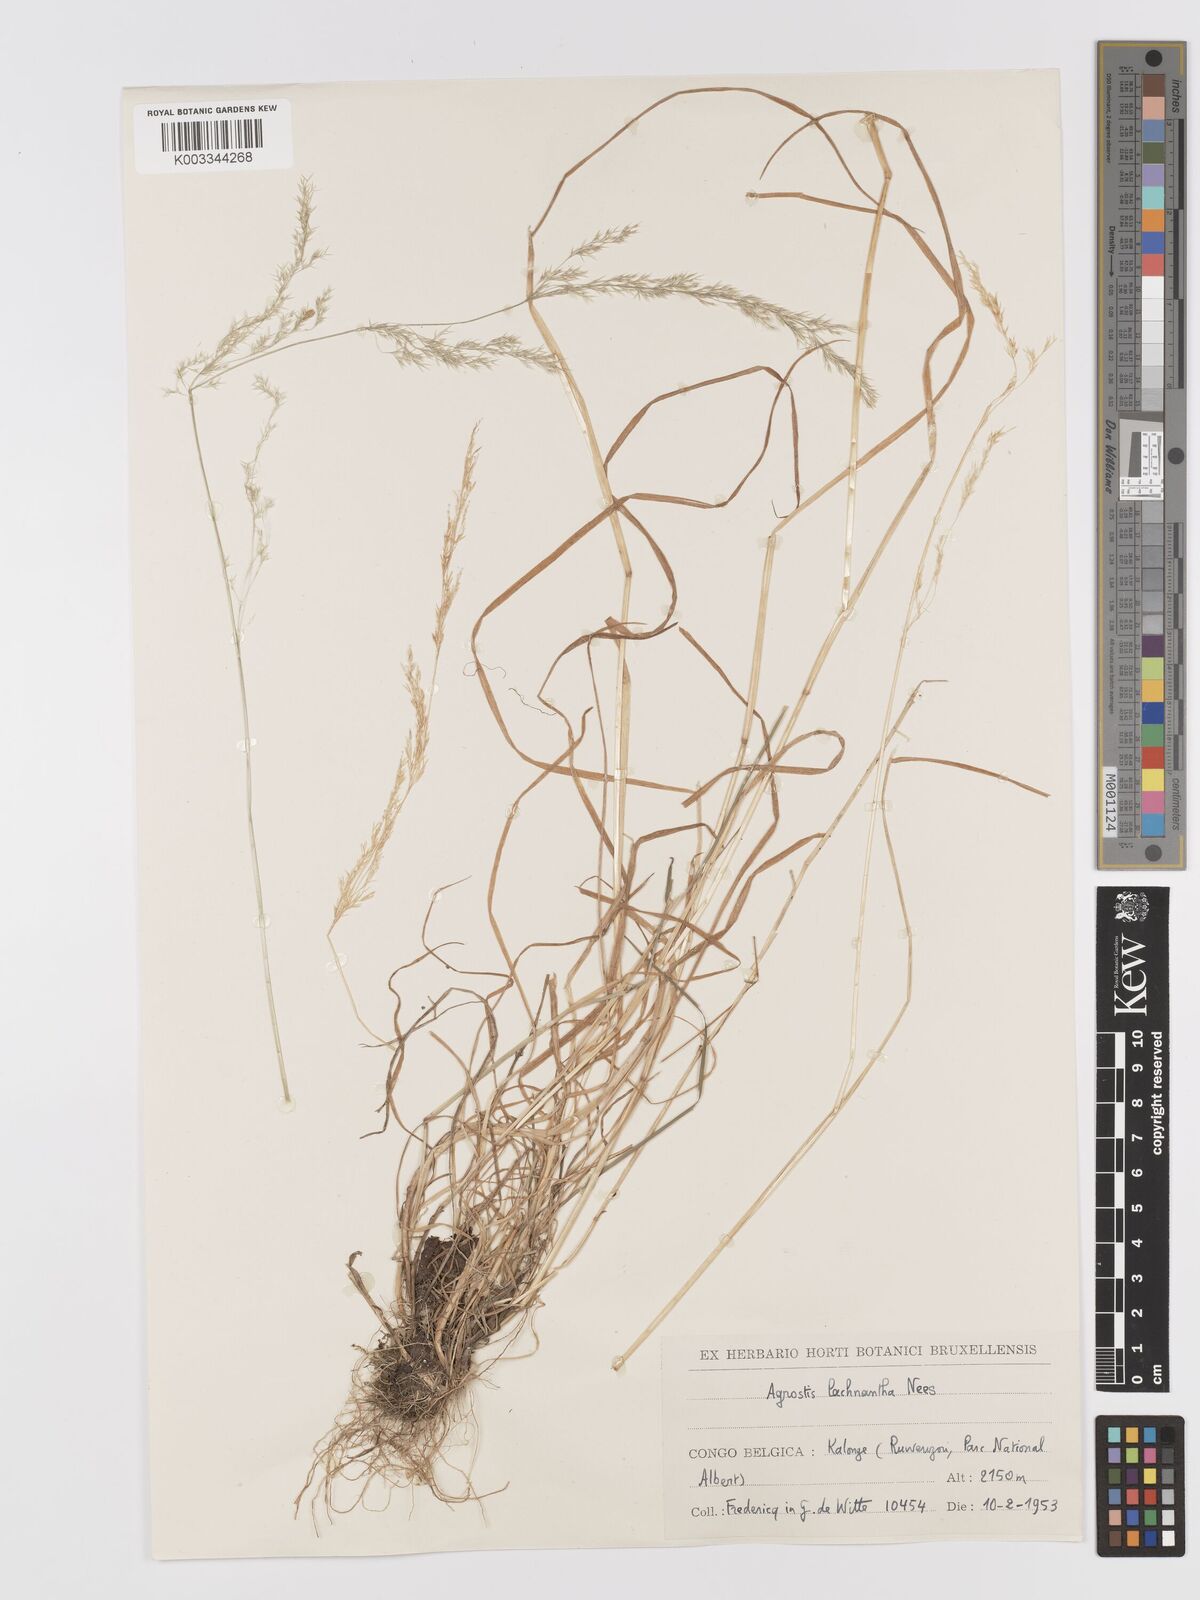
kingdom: Plantae
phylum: Tracheophyta
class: Liliopsida
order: Poales
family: Poaceae
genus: Lachnagrostis
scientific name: Lachnagrostis lachnantha
